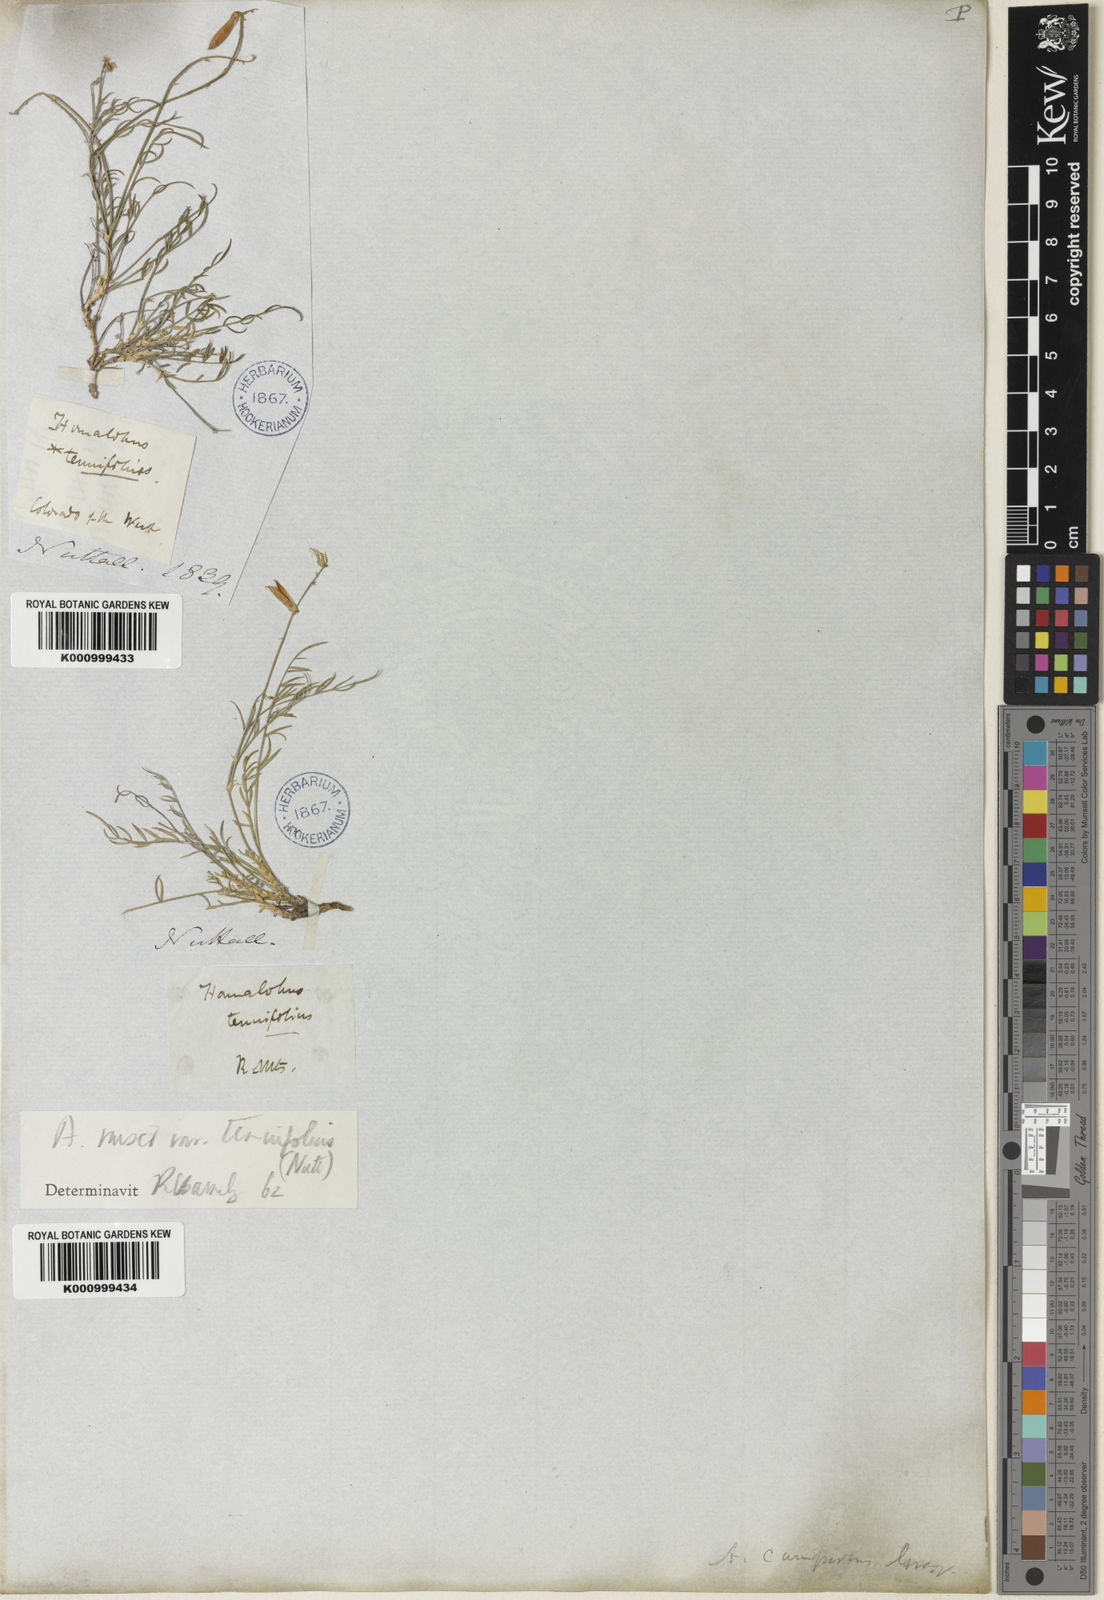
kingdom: Plantae
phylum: Tracheophyta
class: Magnoliopsida
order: Fabales
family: Fabaceae
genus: Astragalus
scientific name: Astragalus convallarius
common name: Lesser rushy milk-vetch
